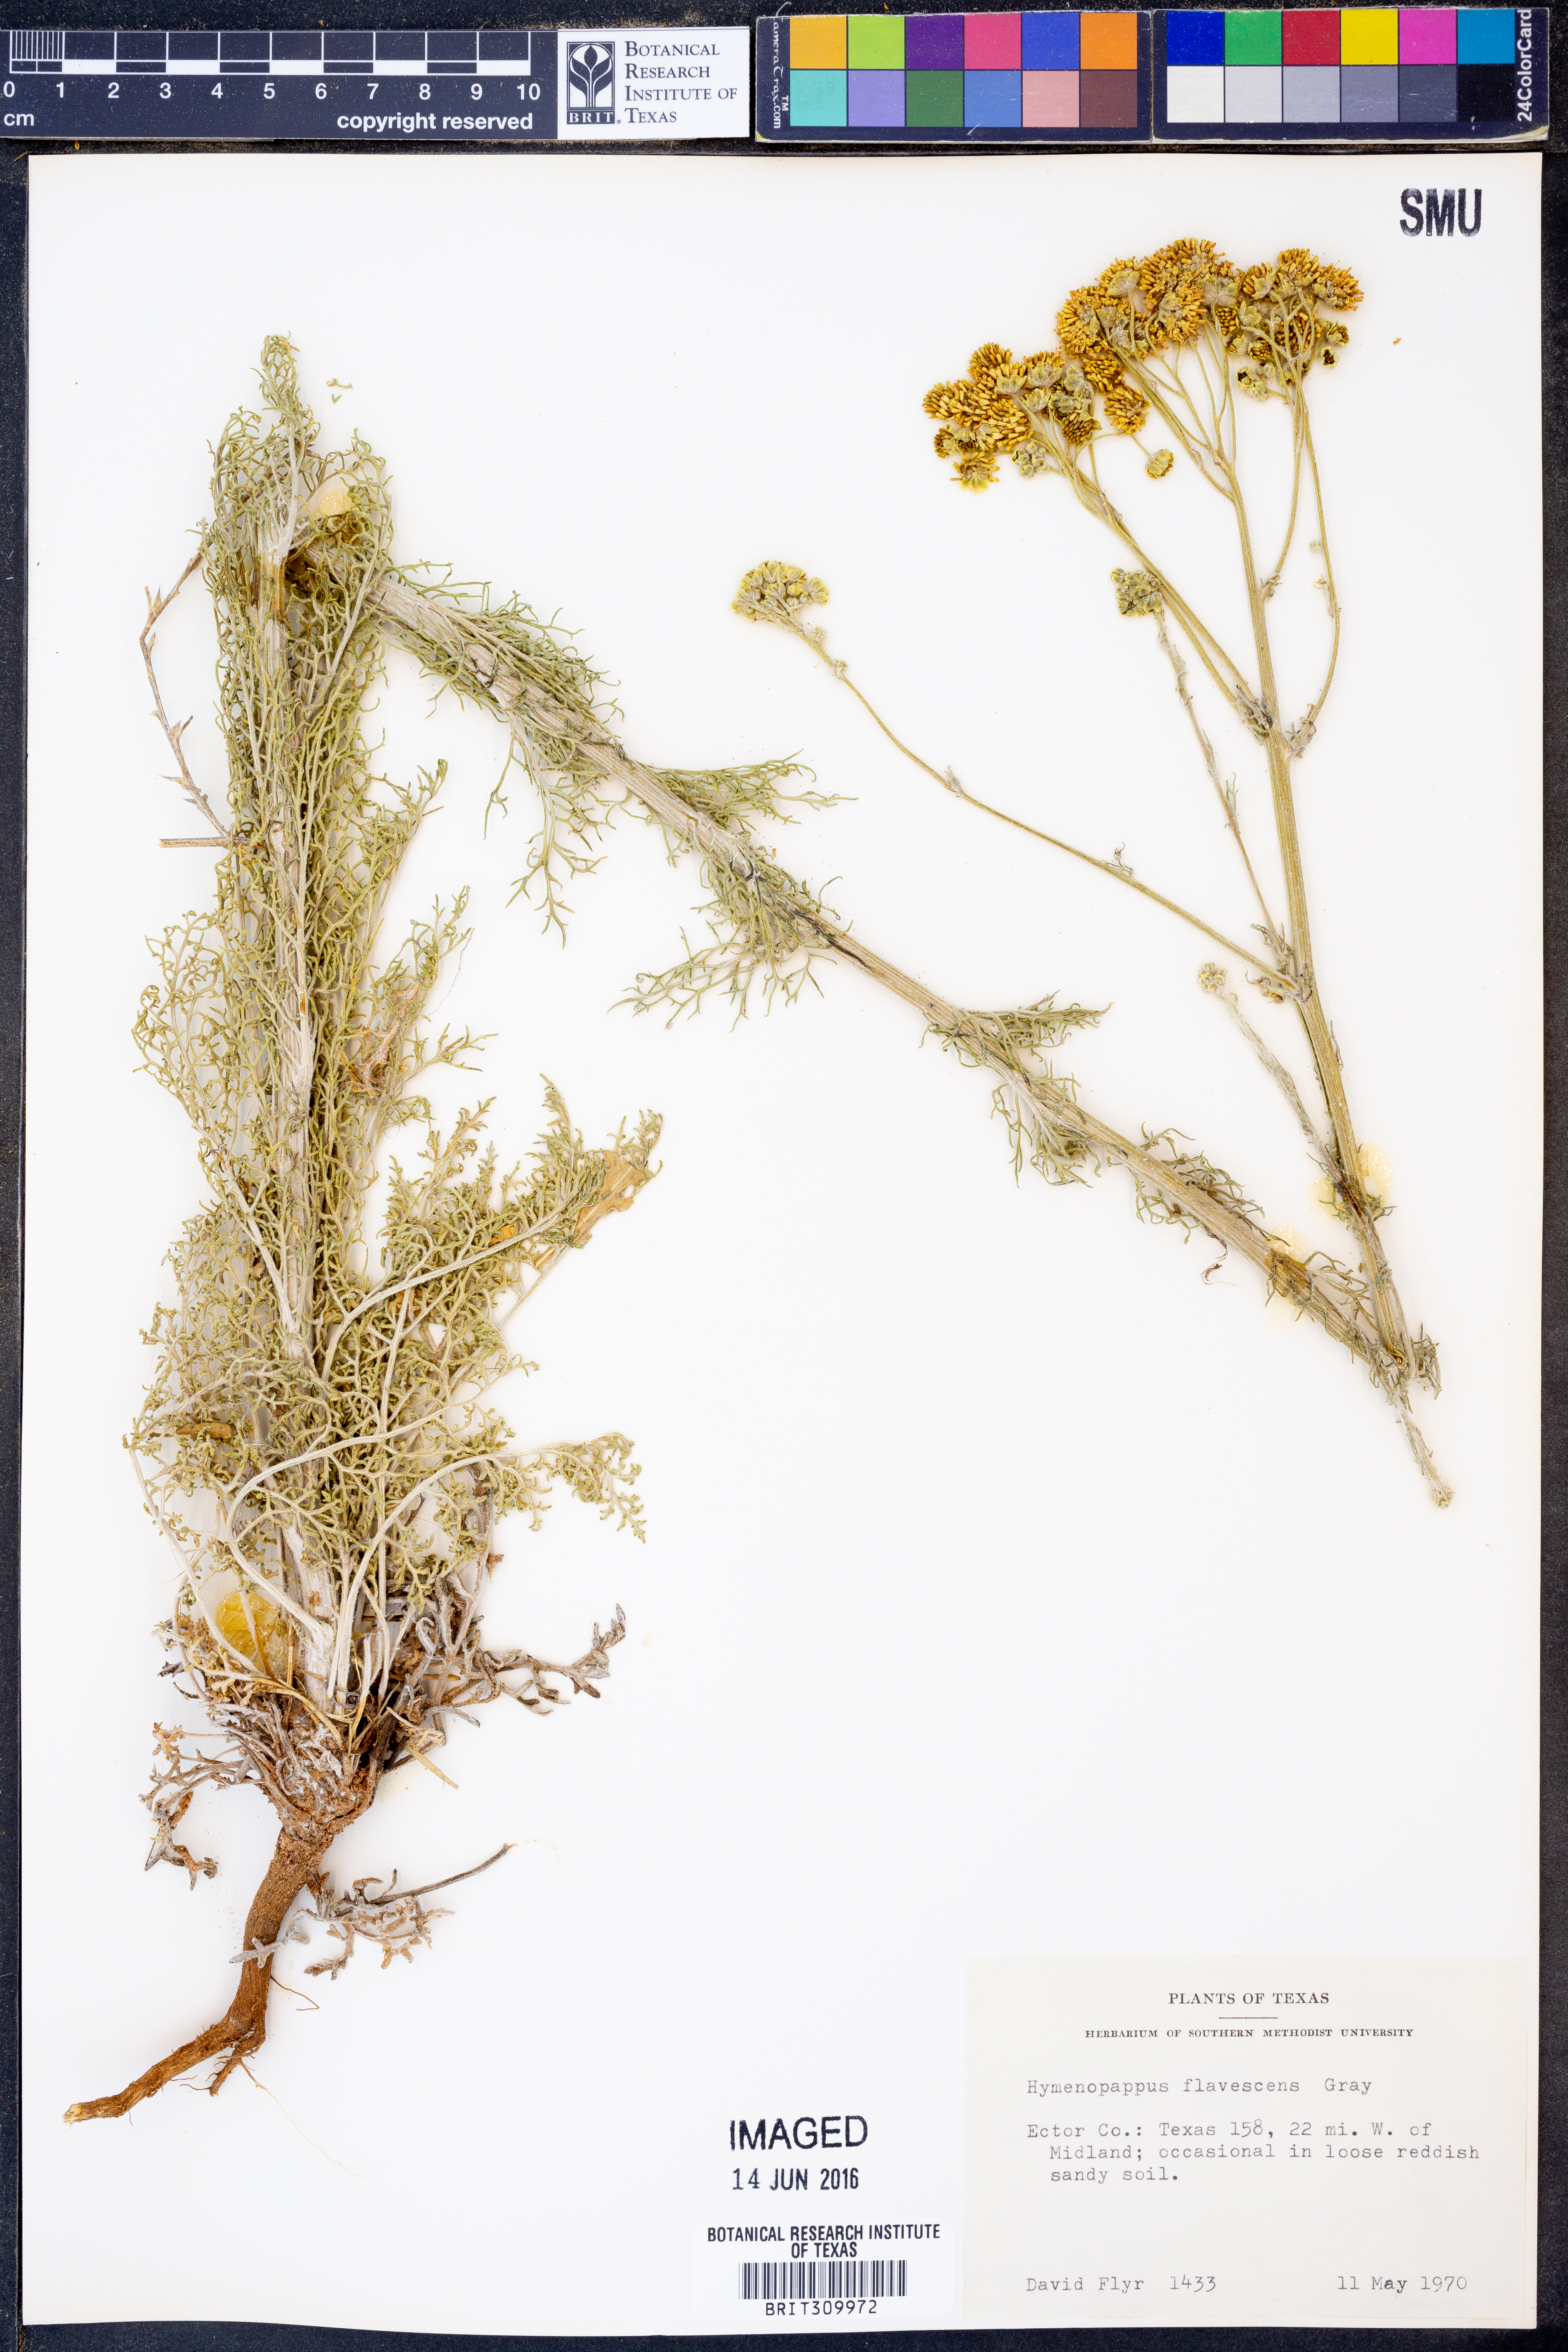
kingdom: Plantae
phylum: Tracheophyta
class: Magnoliopsida
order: Asterales
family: Asteraceae
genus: Hymenopappus
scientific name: Hymenopappus flavescens
